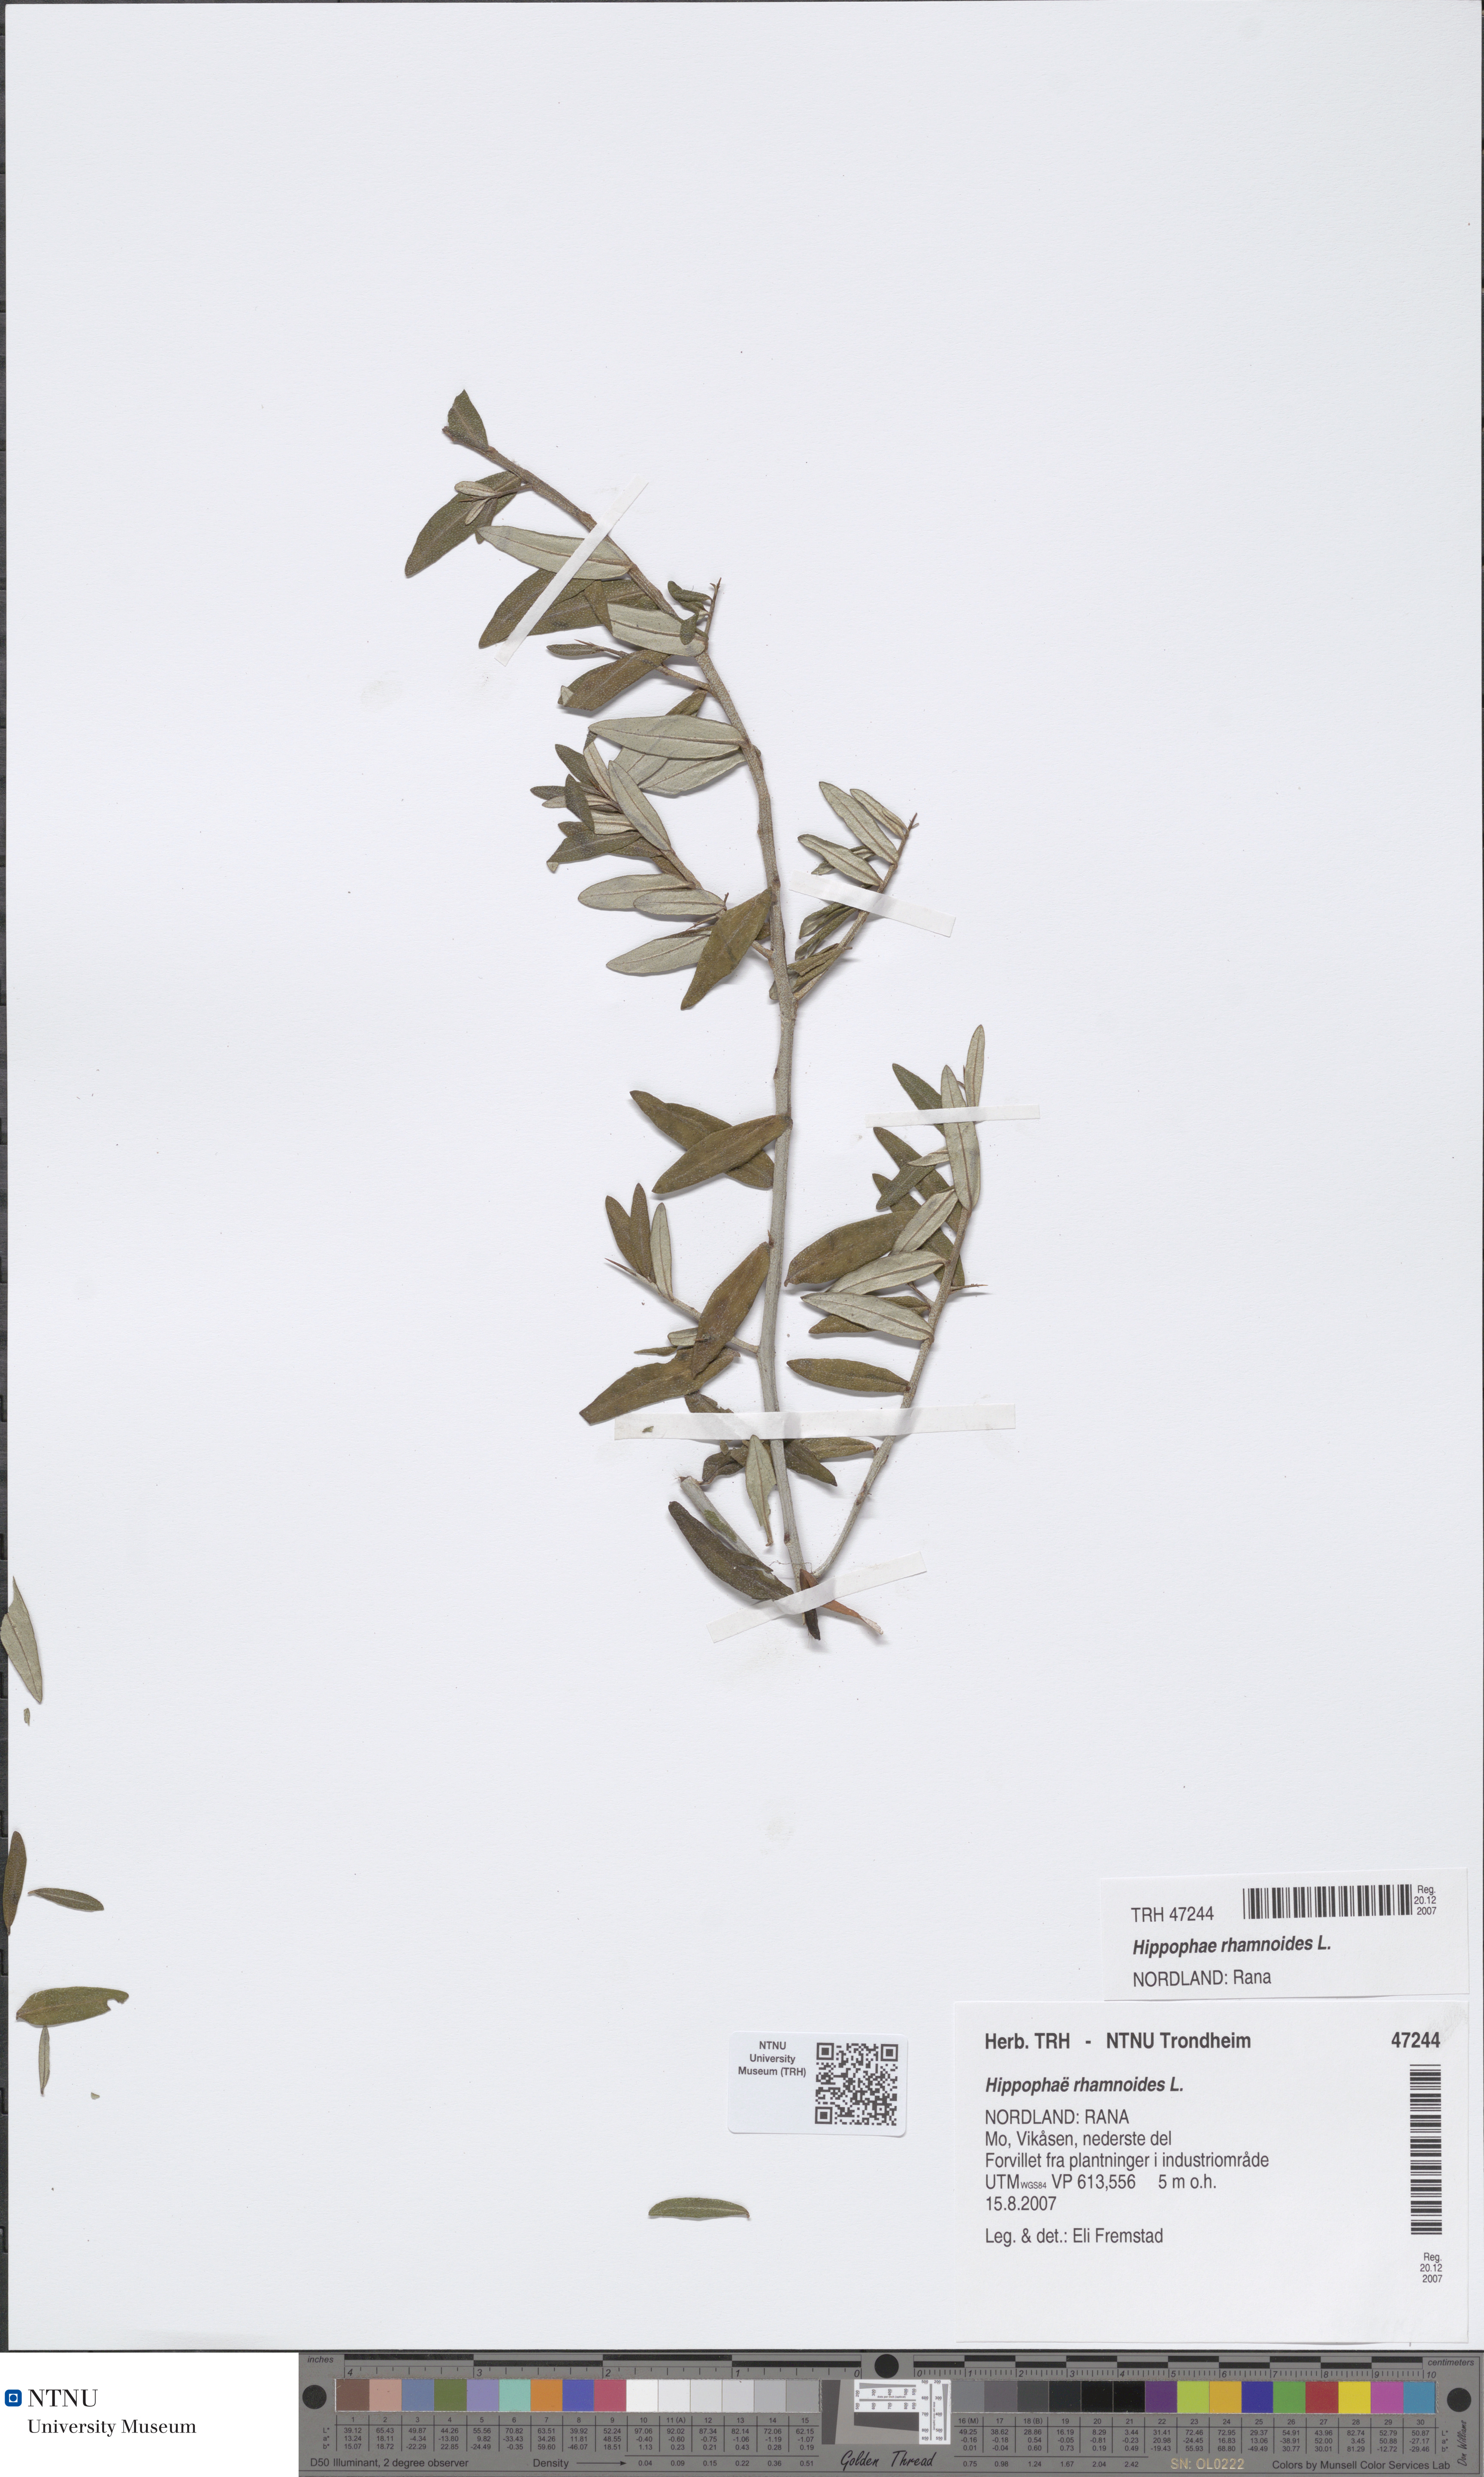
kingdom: Plantae
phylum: Tracheophyta
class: Magnoliopsida
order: Rosales
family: Elaeagnaceae
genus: Hippophae
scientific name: Hippophae rhamnoides
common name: Sea-buckthorn
